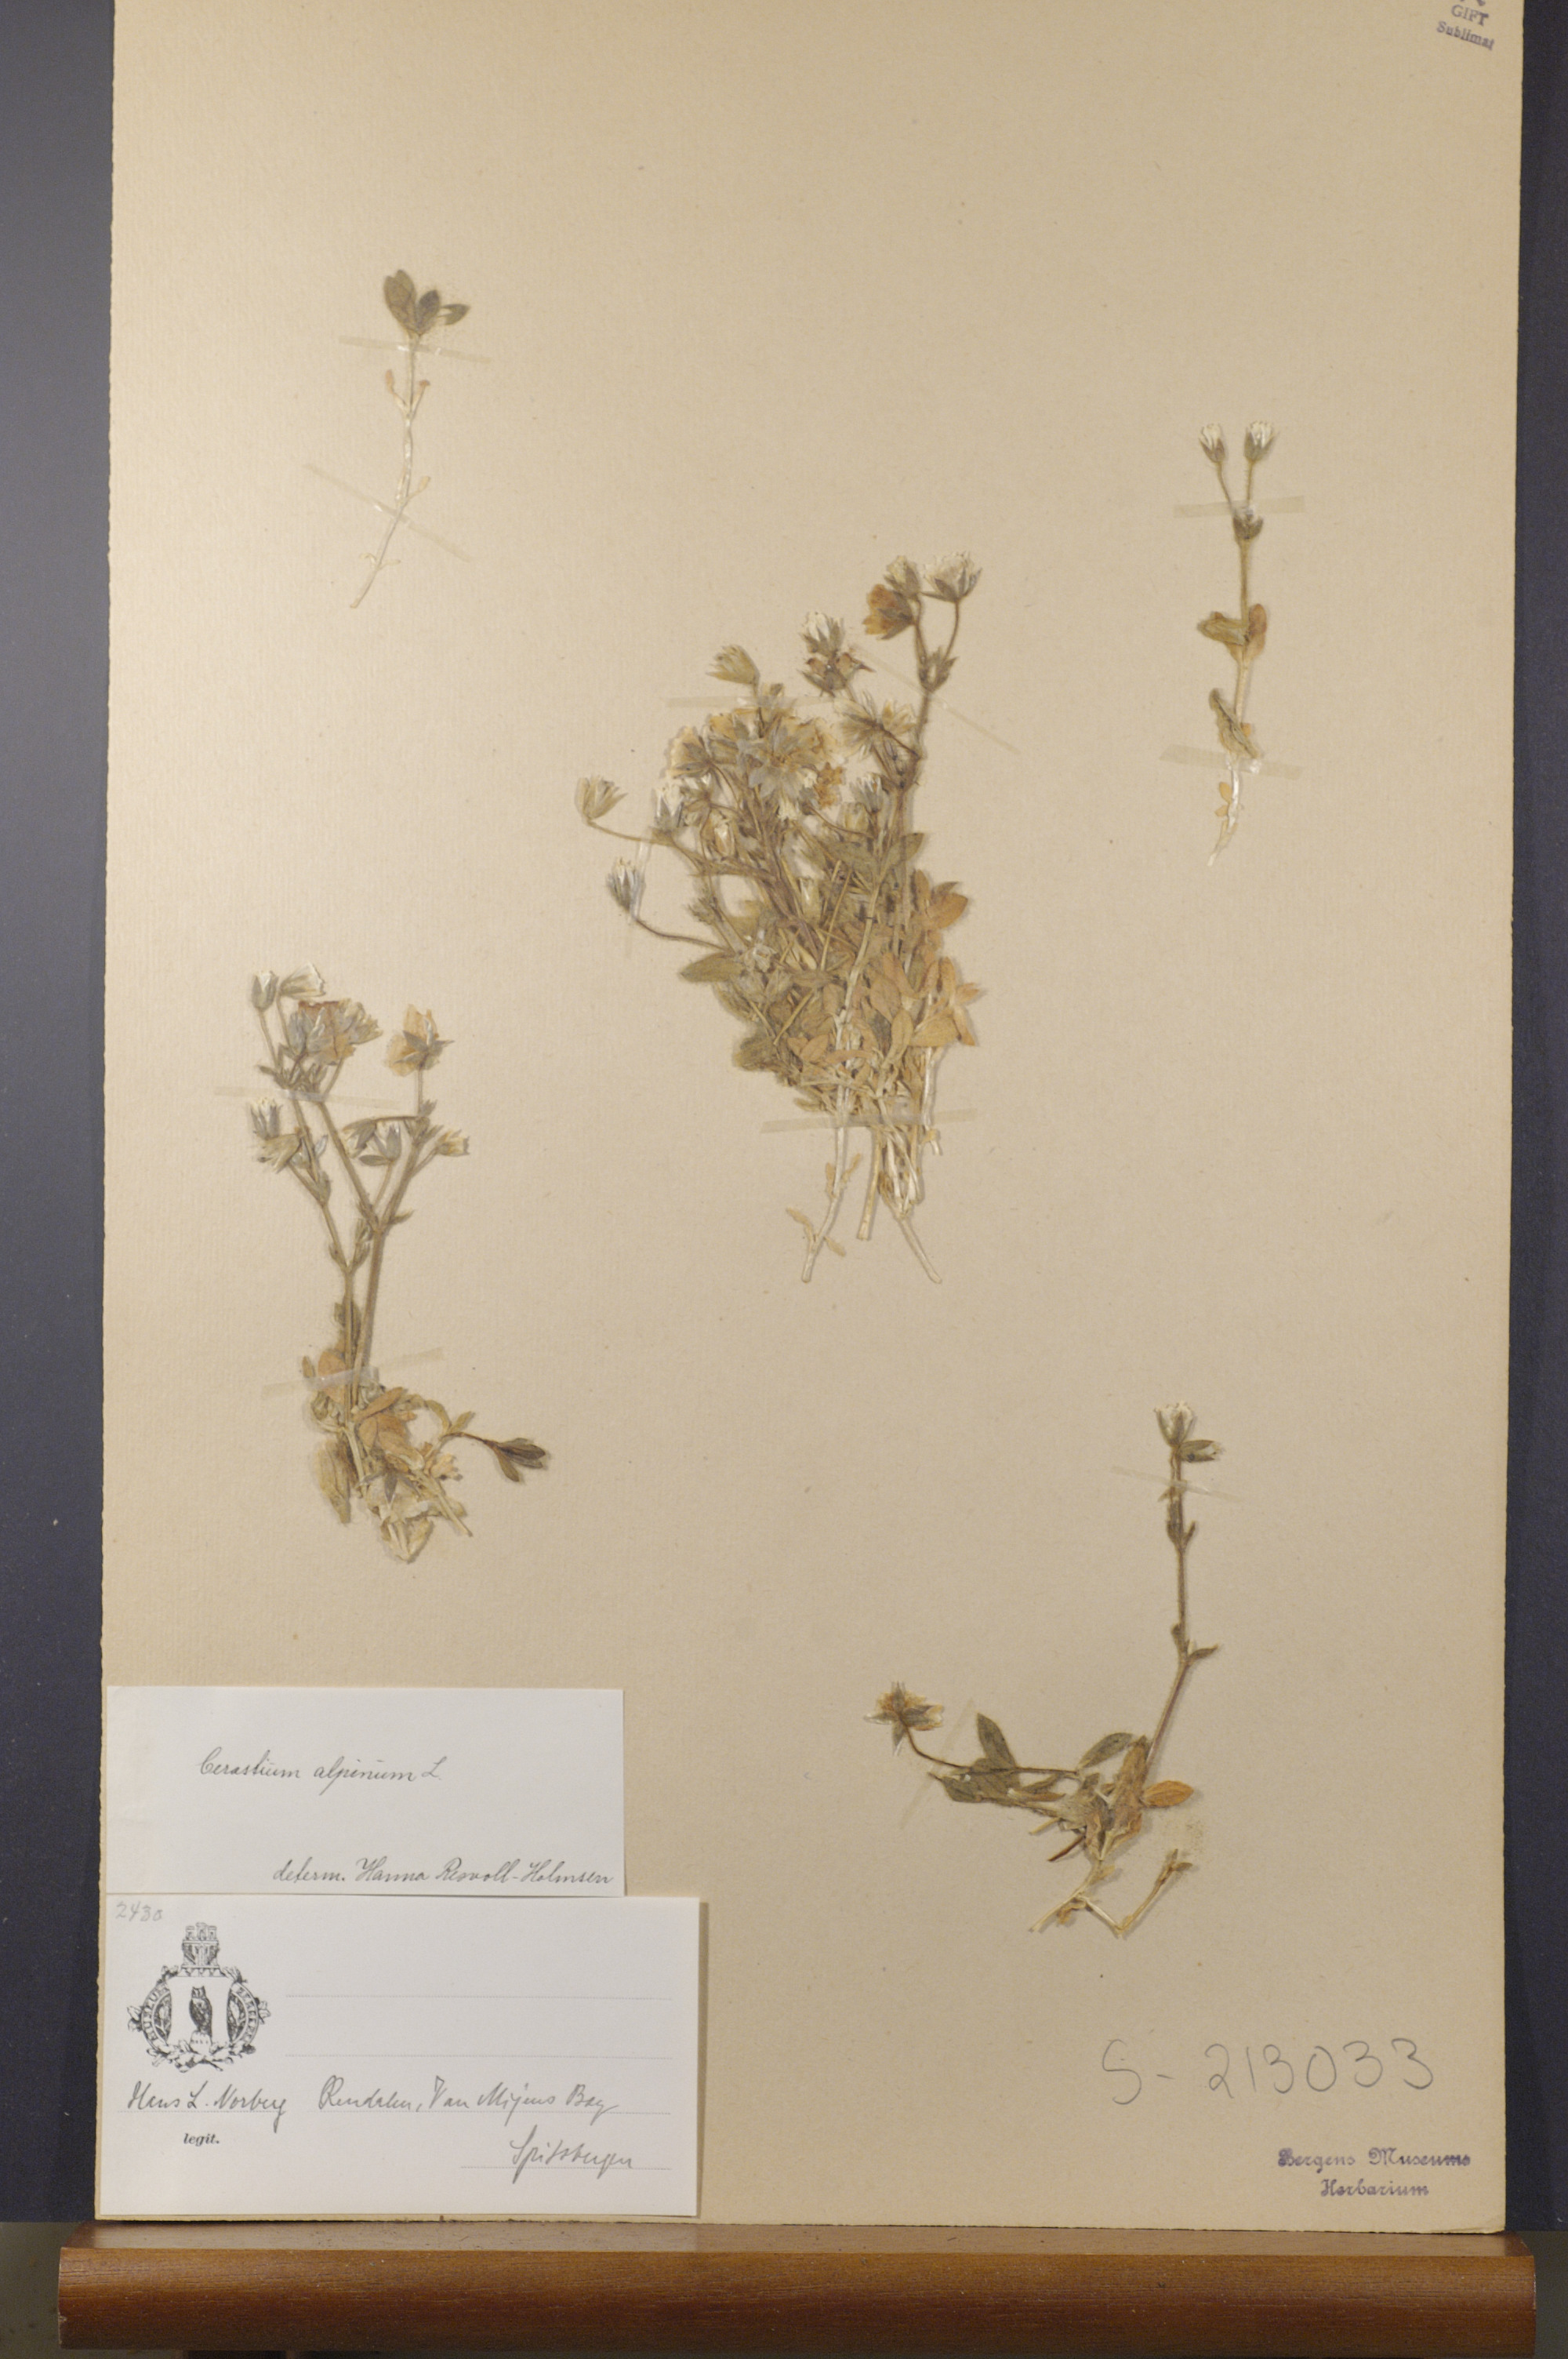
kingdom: Plantae
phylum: Tracheophyta
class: Magnoliopsida
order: Caryophyllales
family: Caryophyllaceae
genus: Cerastium
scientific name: Cerastium alpinum
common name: Alpine mouse-ear
